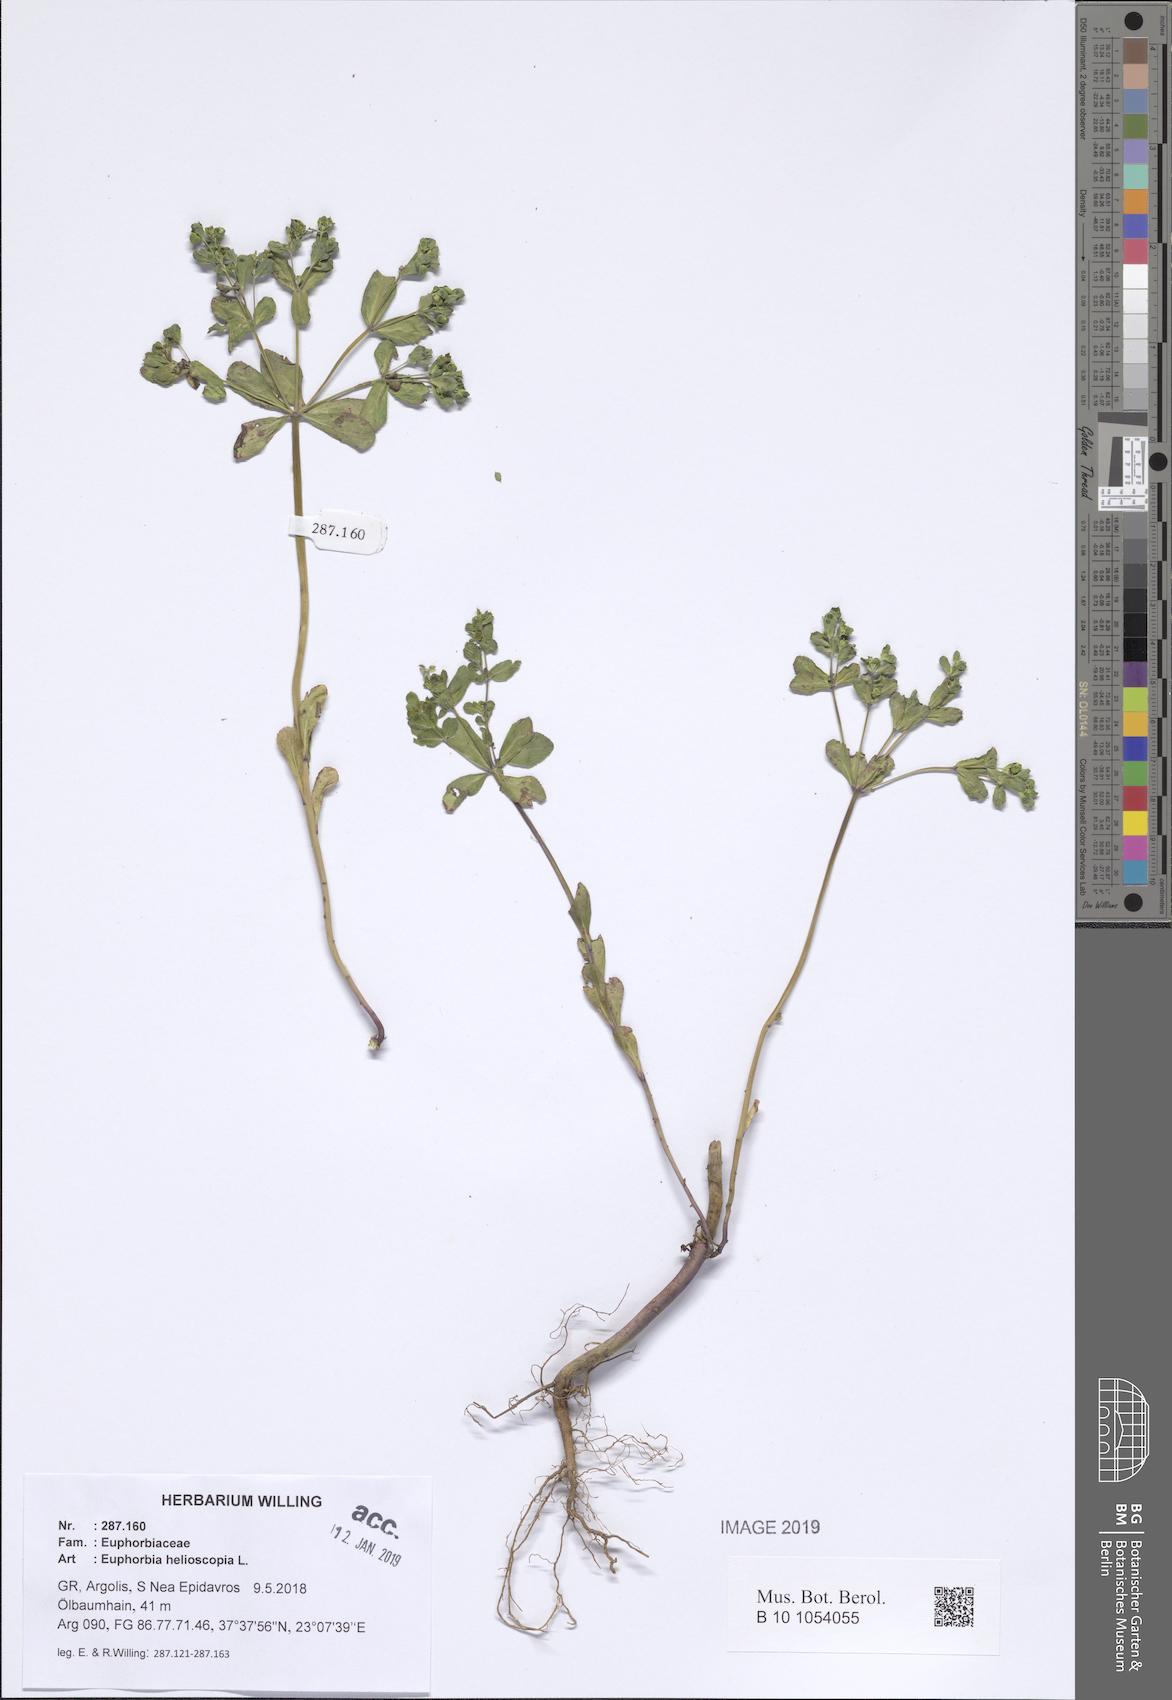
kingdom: Plantae
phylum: Tracheophyta
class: Magnoliopsida
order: Malpighiales
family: Euphorbiaceae
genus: Euphorbia
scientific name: Euphorbia helioscopia
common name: Sun spurge
